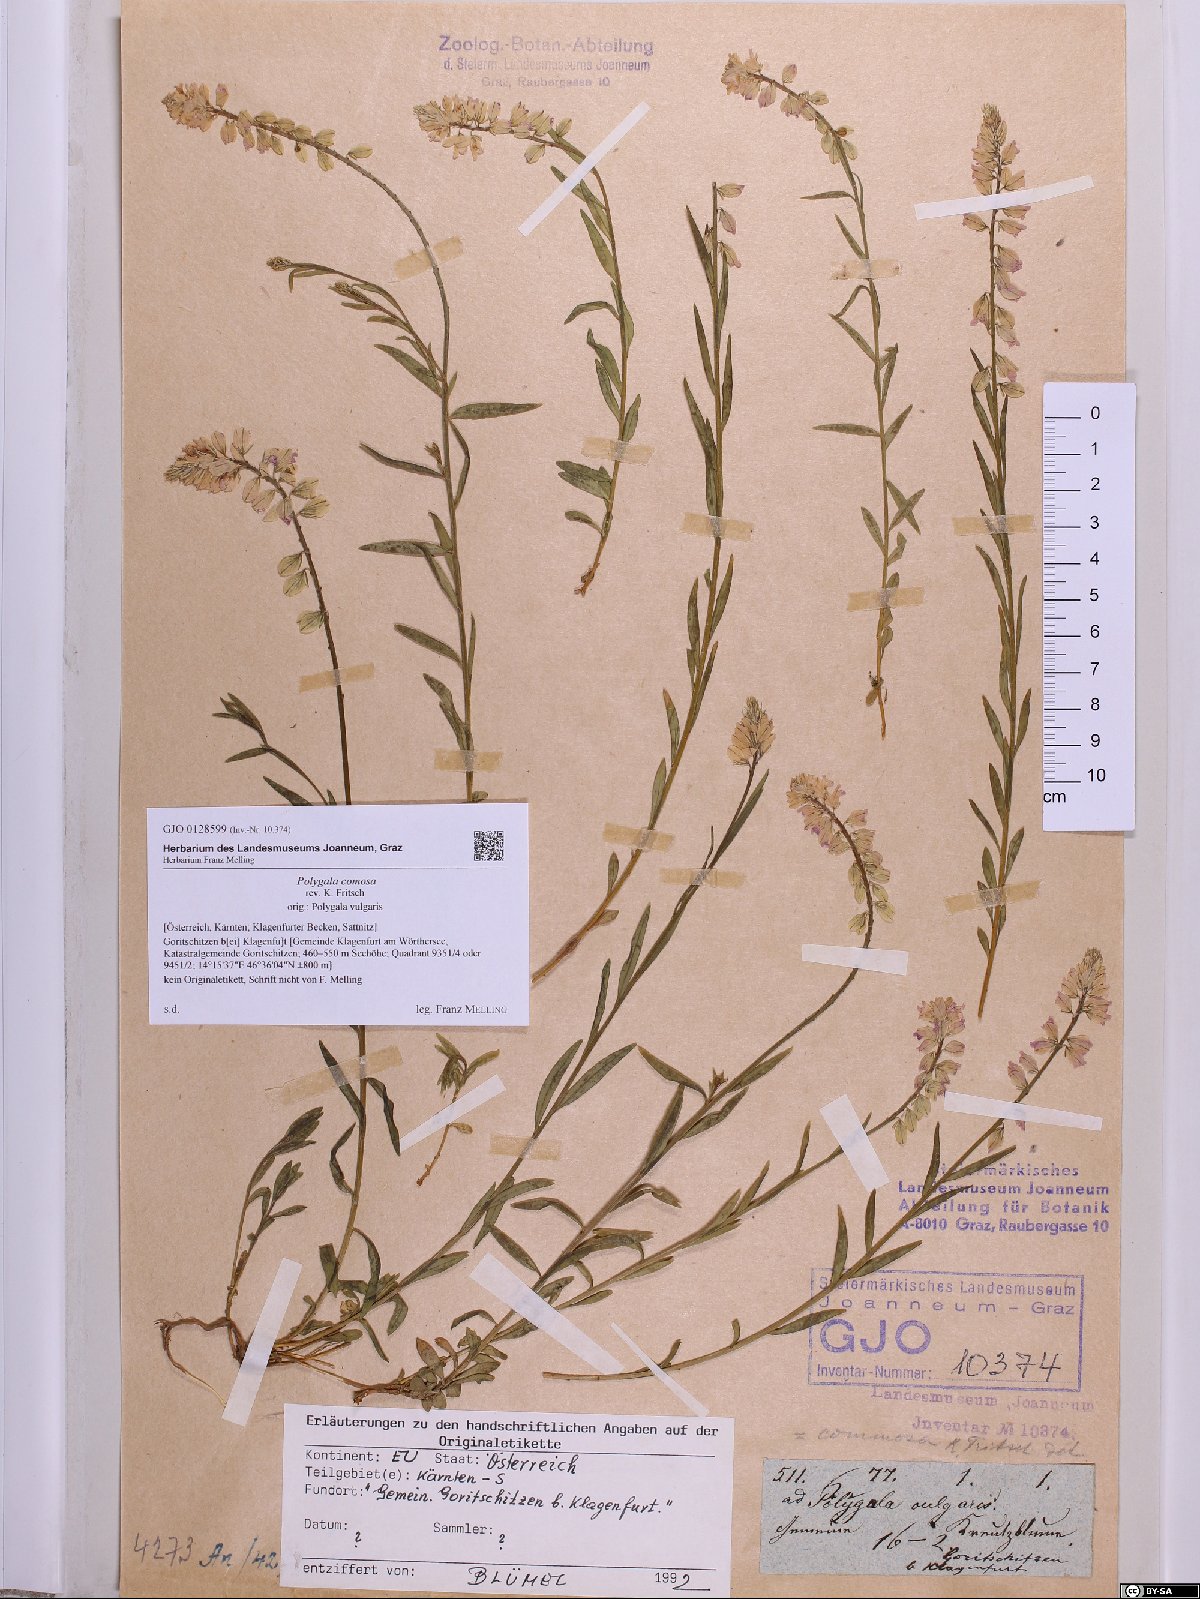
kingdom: Plantae
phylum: Tracheophyta
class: Magnoliopsida
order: Fabales
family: Polygalaceae
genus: Polygala
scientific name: Polygala comosa
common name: Tufted milkwort
